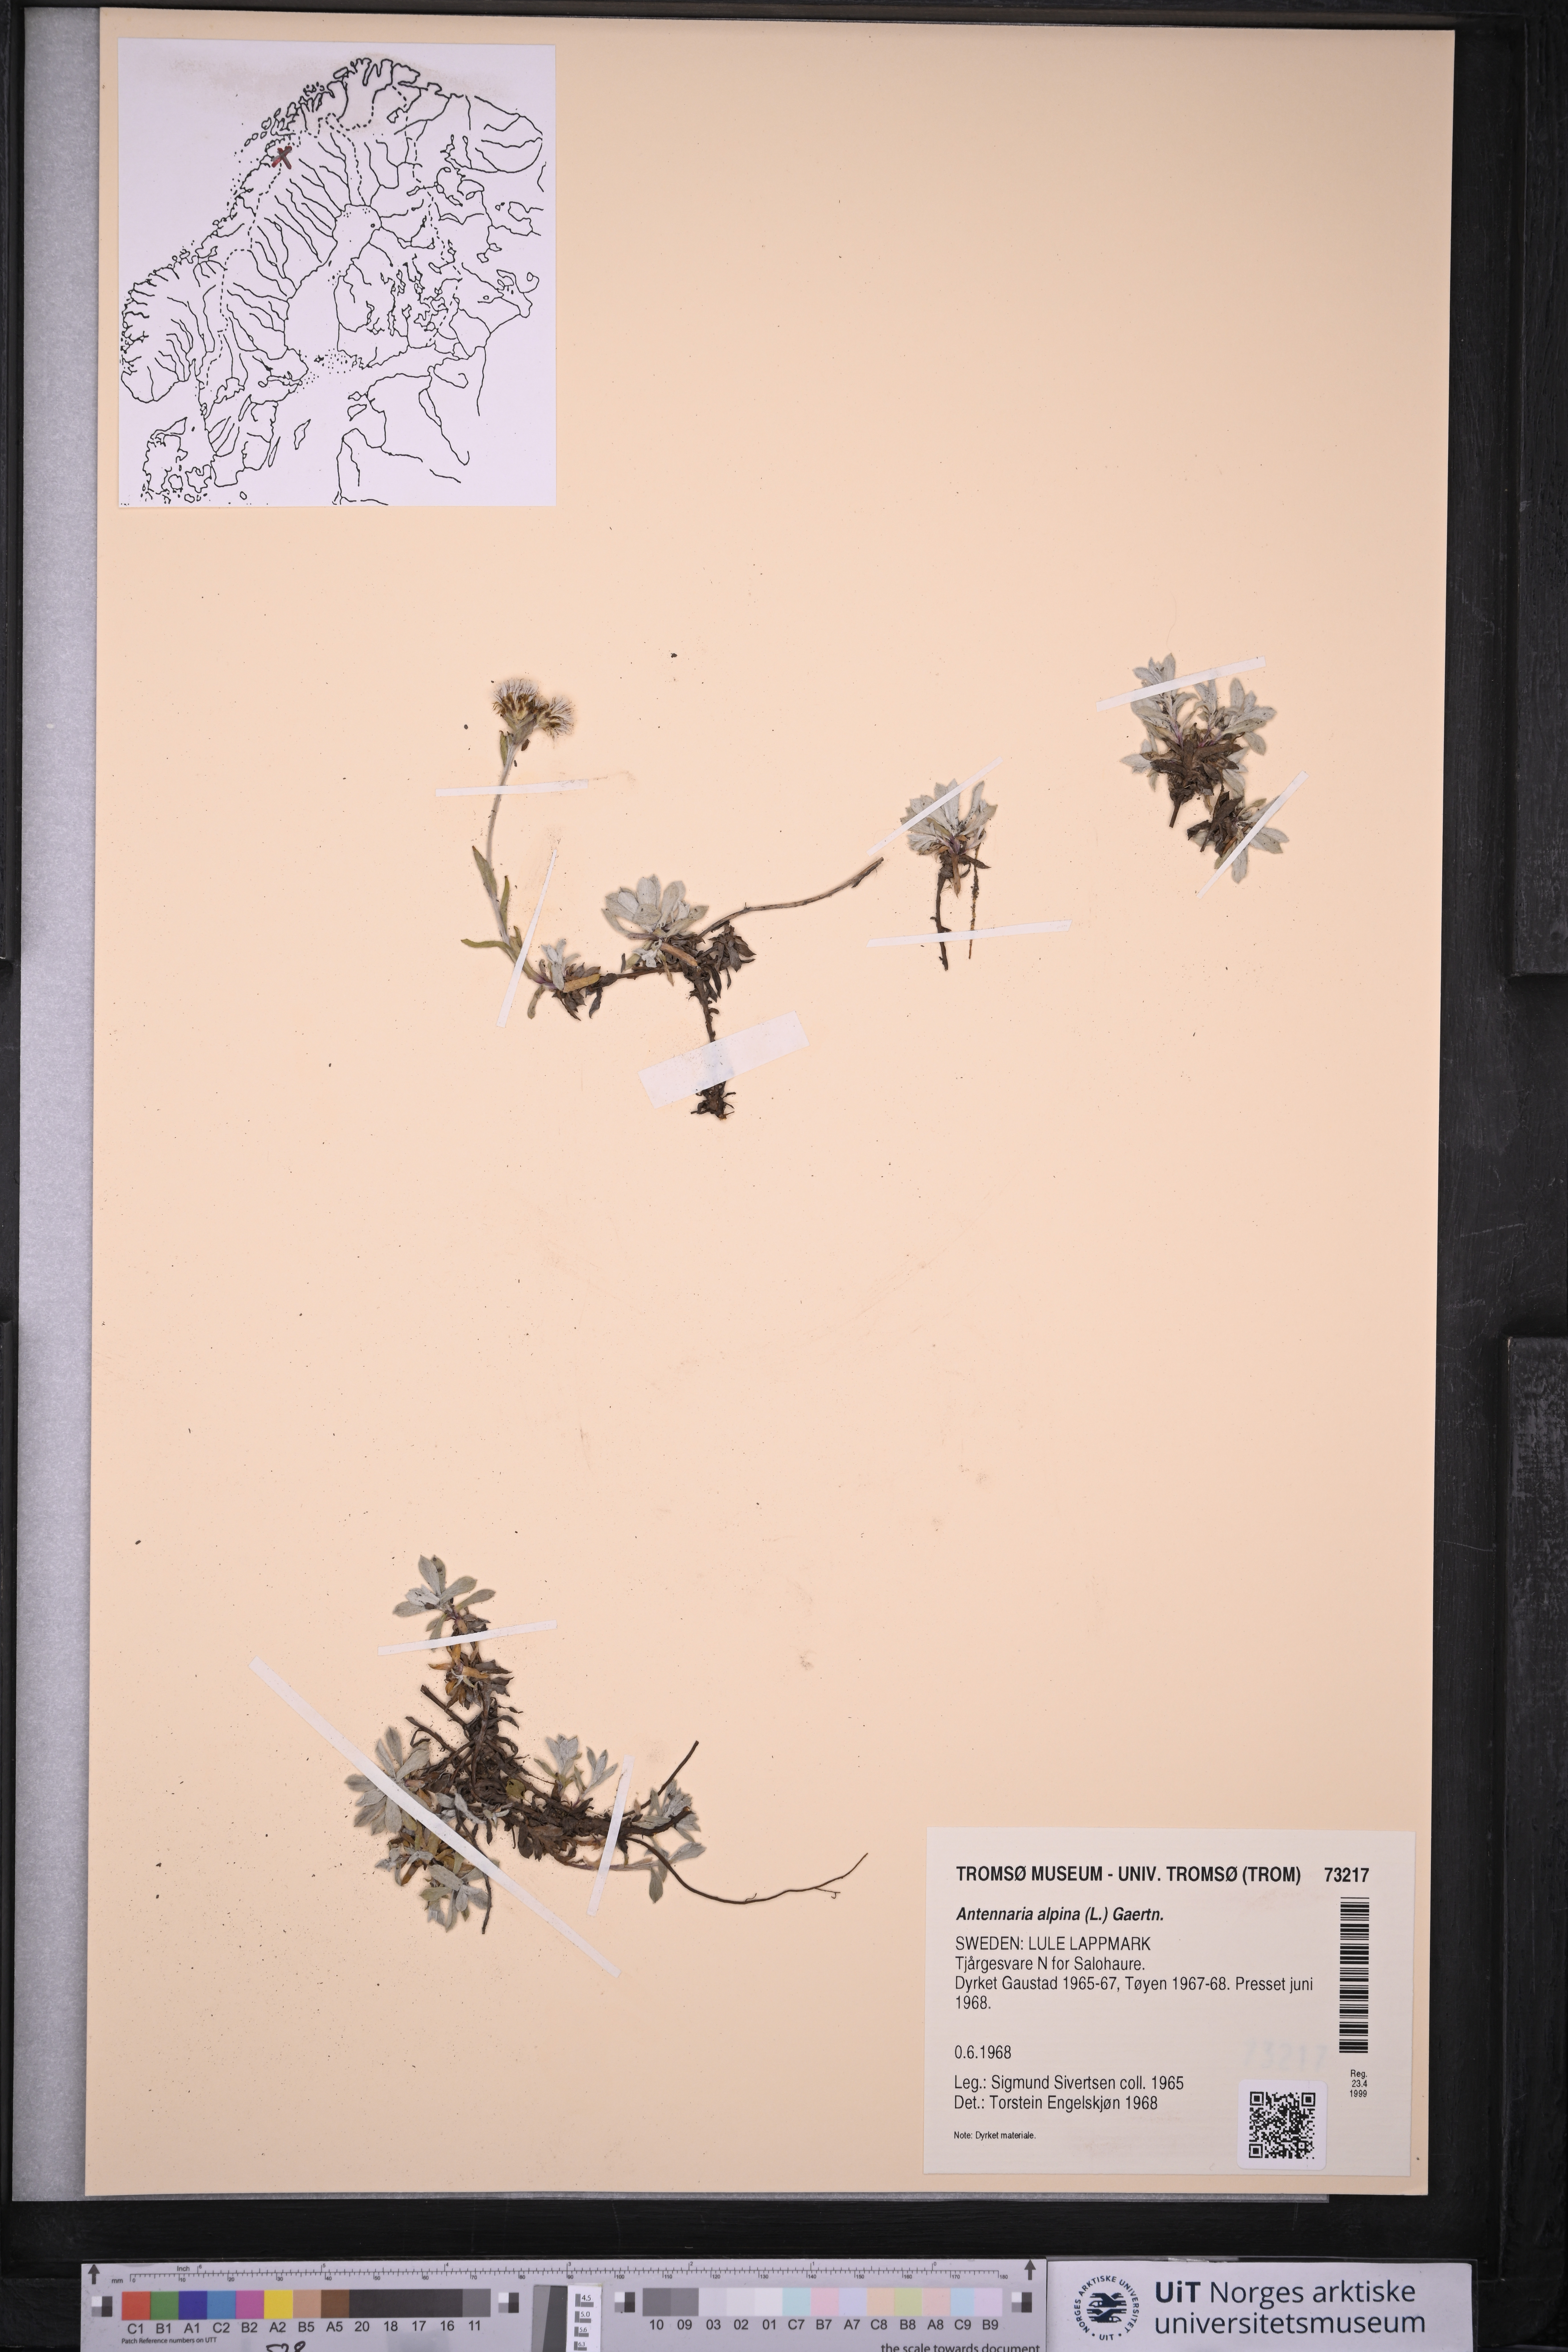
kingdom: Plantae
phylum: Tracheophyta
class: Magnoliopsida
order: Asterales
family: Asteraceae
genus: Antennaria
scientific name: Antennaria alpina
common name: Alpine pussytoes
